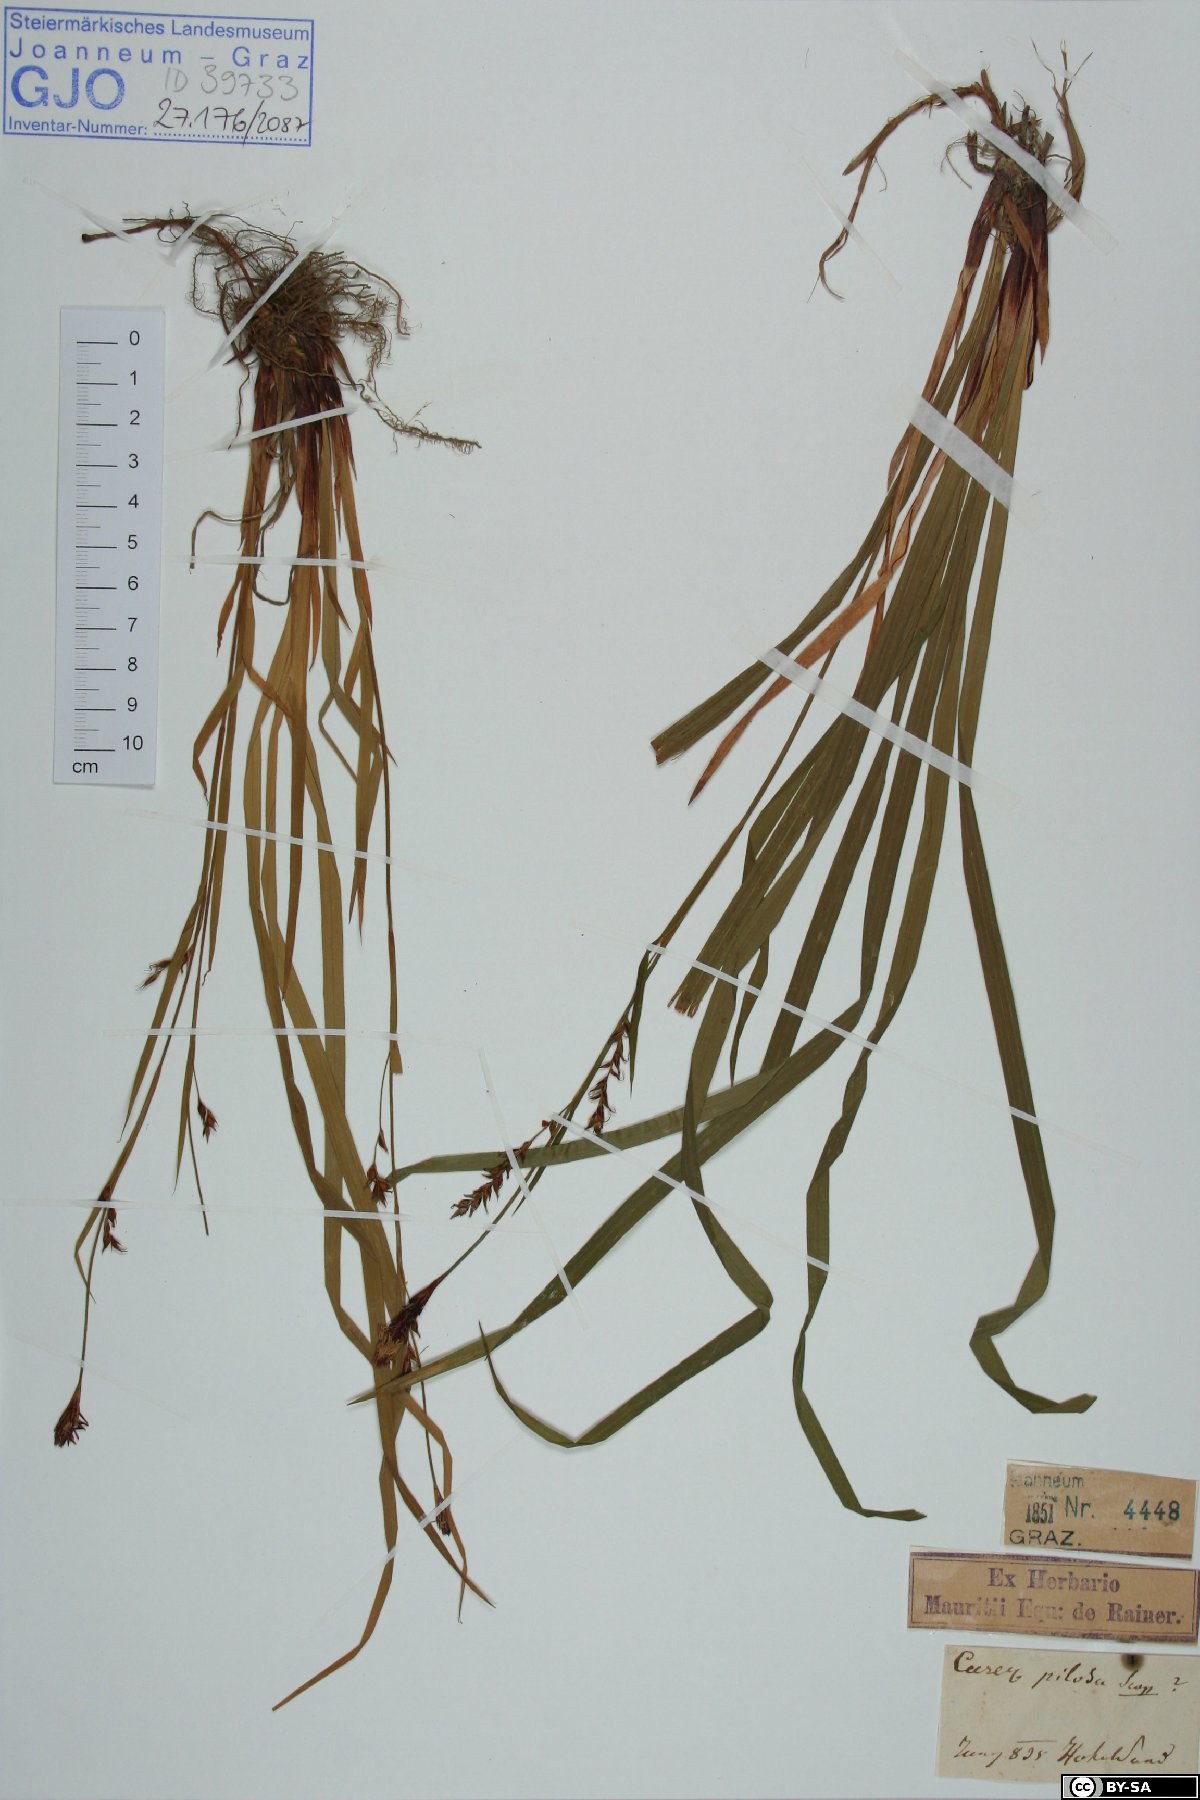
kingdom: Plantae
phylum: Tracheophyta
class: Liliopsida
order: Poales
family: Cyperaceae
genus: Carex
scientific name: Carex pilosa
